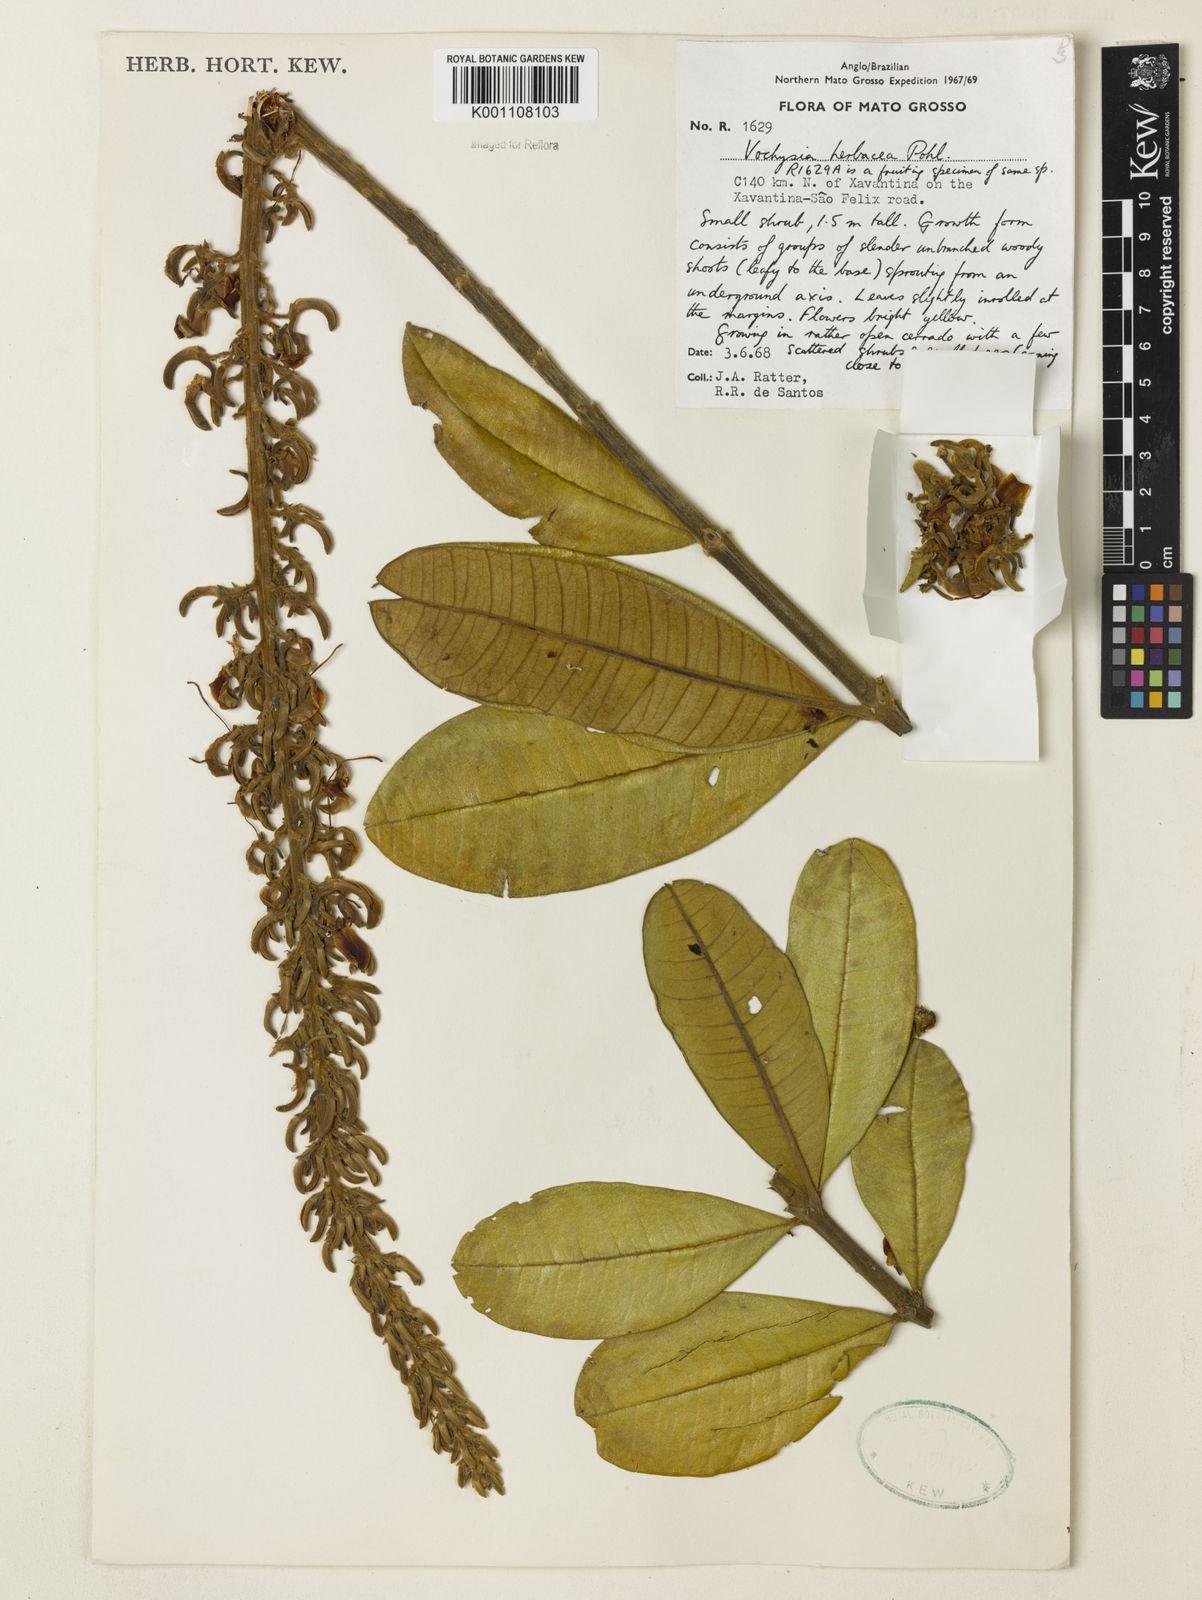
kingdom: Plantae
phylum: Tracheophyta
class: Magnoliopsida
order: Myrtales
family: Vochysiaceae
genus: Vochysia
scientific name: Vochysia herbacea
